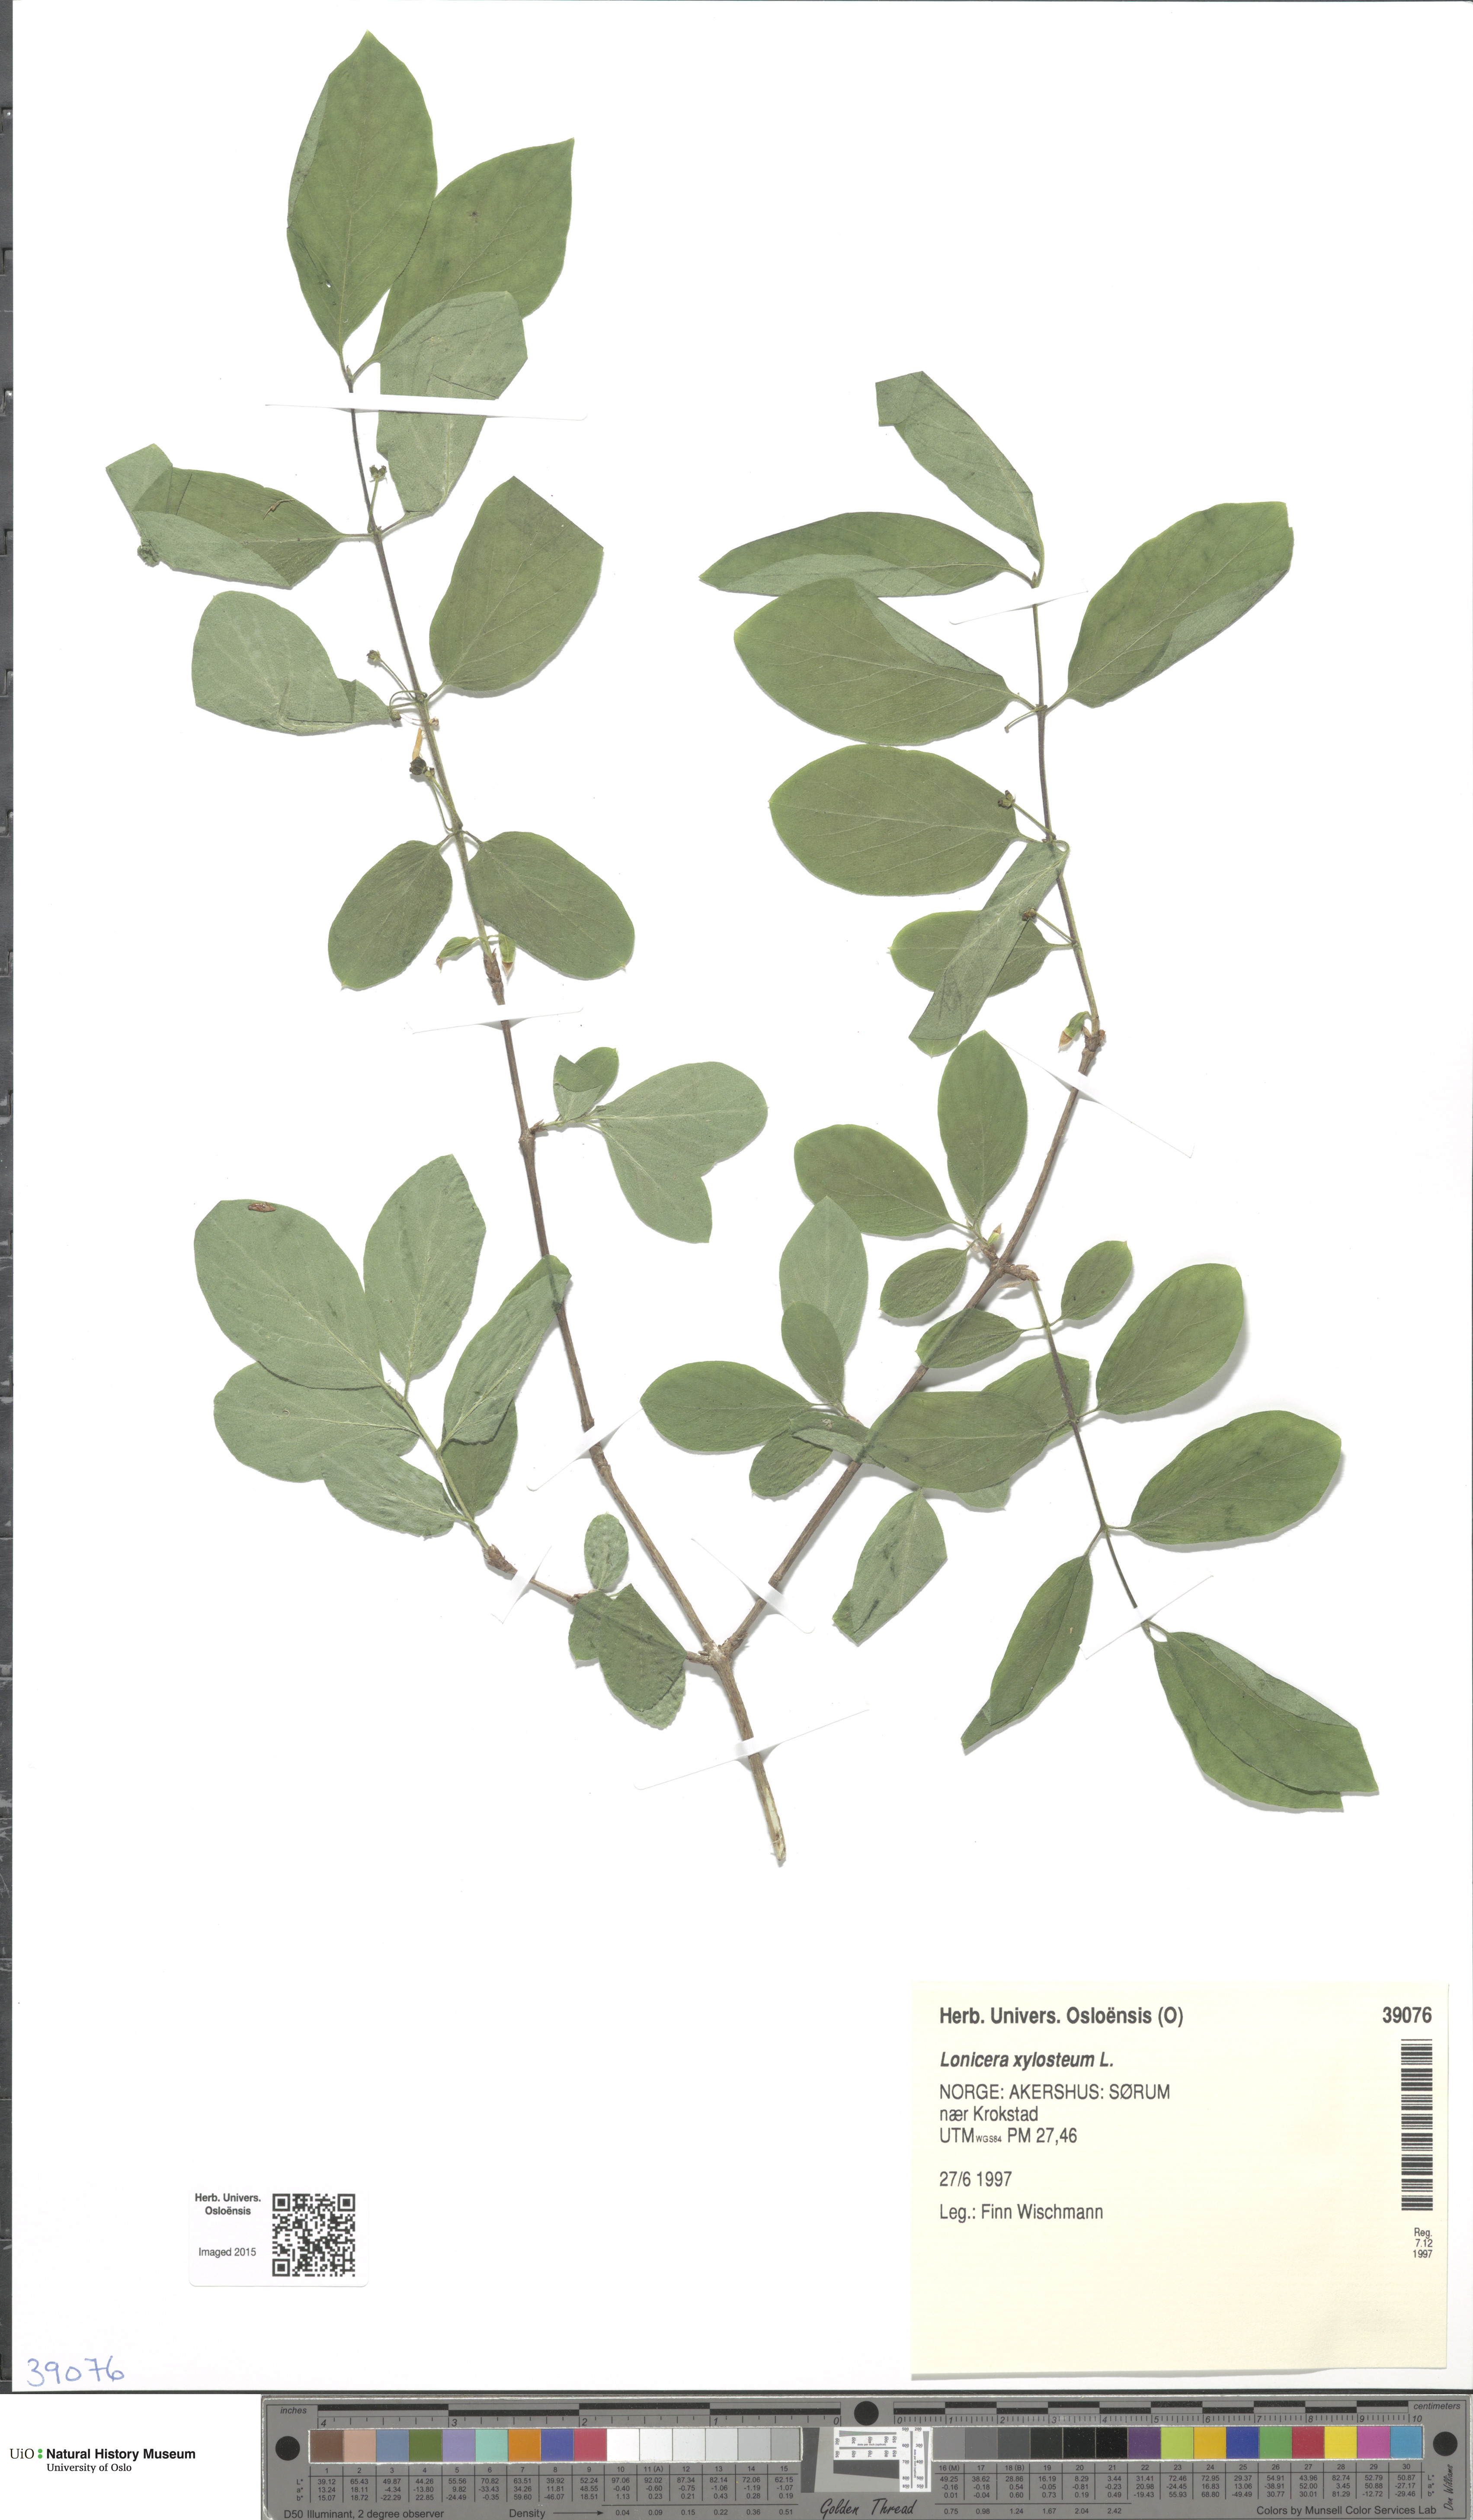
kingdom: Plantae
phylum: Tracheophyta
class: Magnoliopsida
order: Dipsacales
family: Caprifoliaceae
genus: Lonicera
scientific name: Lonicera xylosteum
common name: Fly honeysuckle
